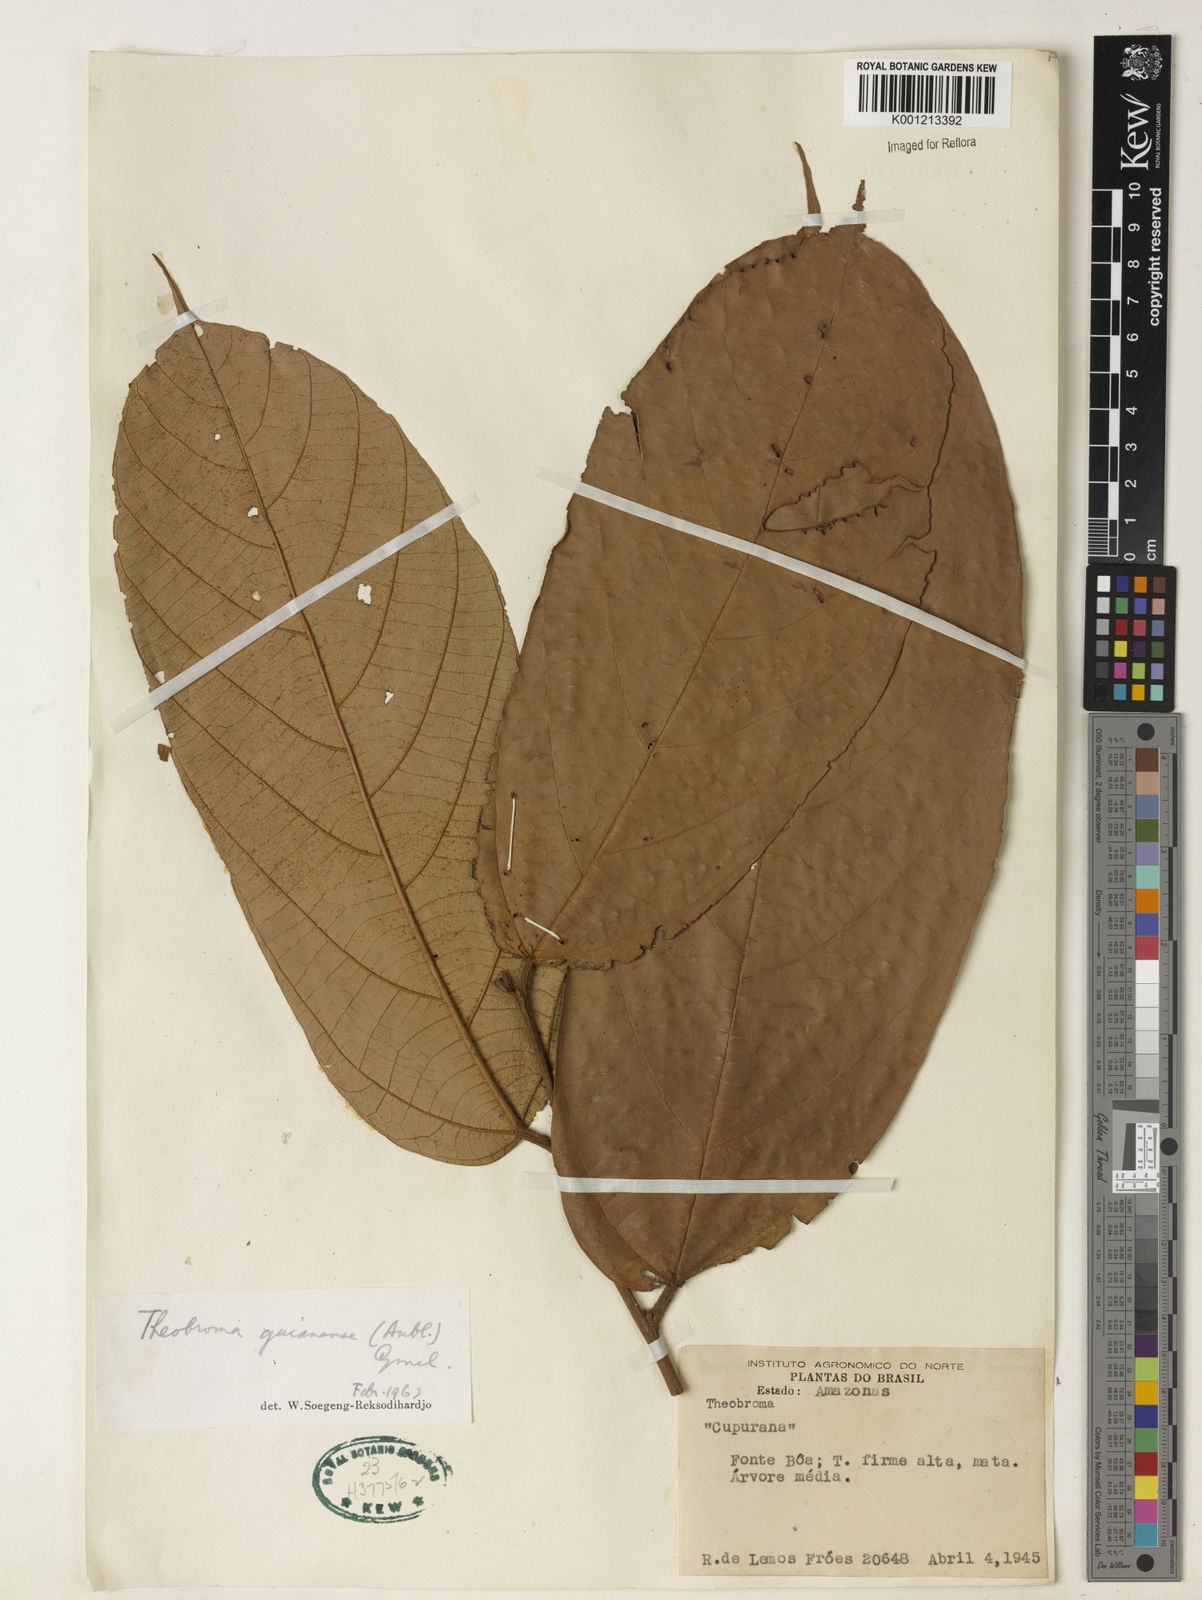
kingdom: Plantae
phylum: Tracheophyta
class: Magnoliopsida
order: Malvales
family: Malvaceae
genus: Theobroma
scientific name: Theobroma subincanum
